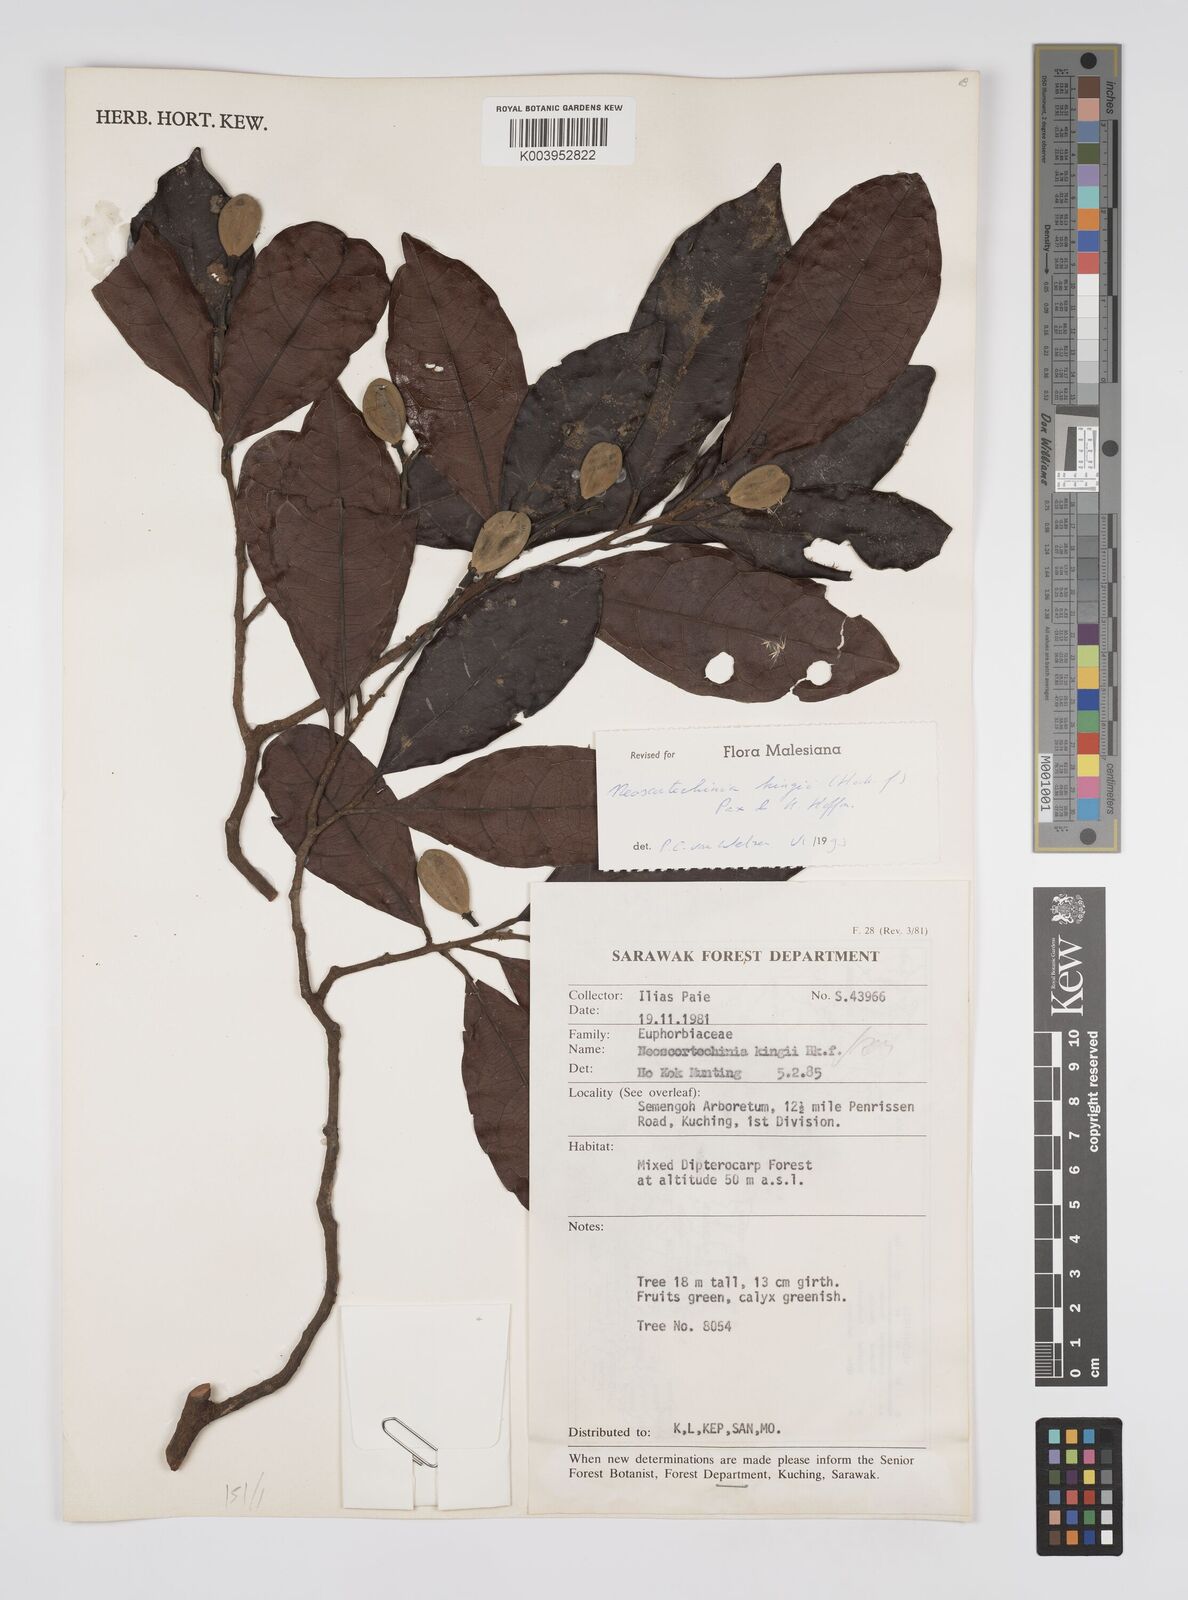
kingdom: Plantae
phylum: Tracheophyta
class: Magnoliopsida
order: Malpighiales
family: Euphorbiaceae
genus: Neoscortechinia
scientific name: Neoscortechinia kingii
